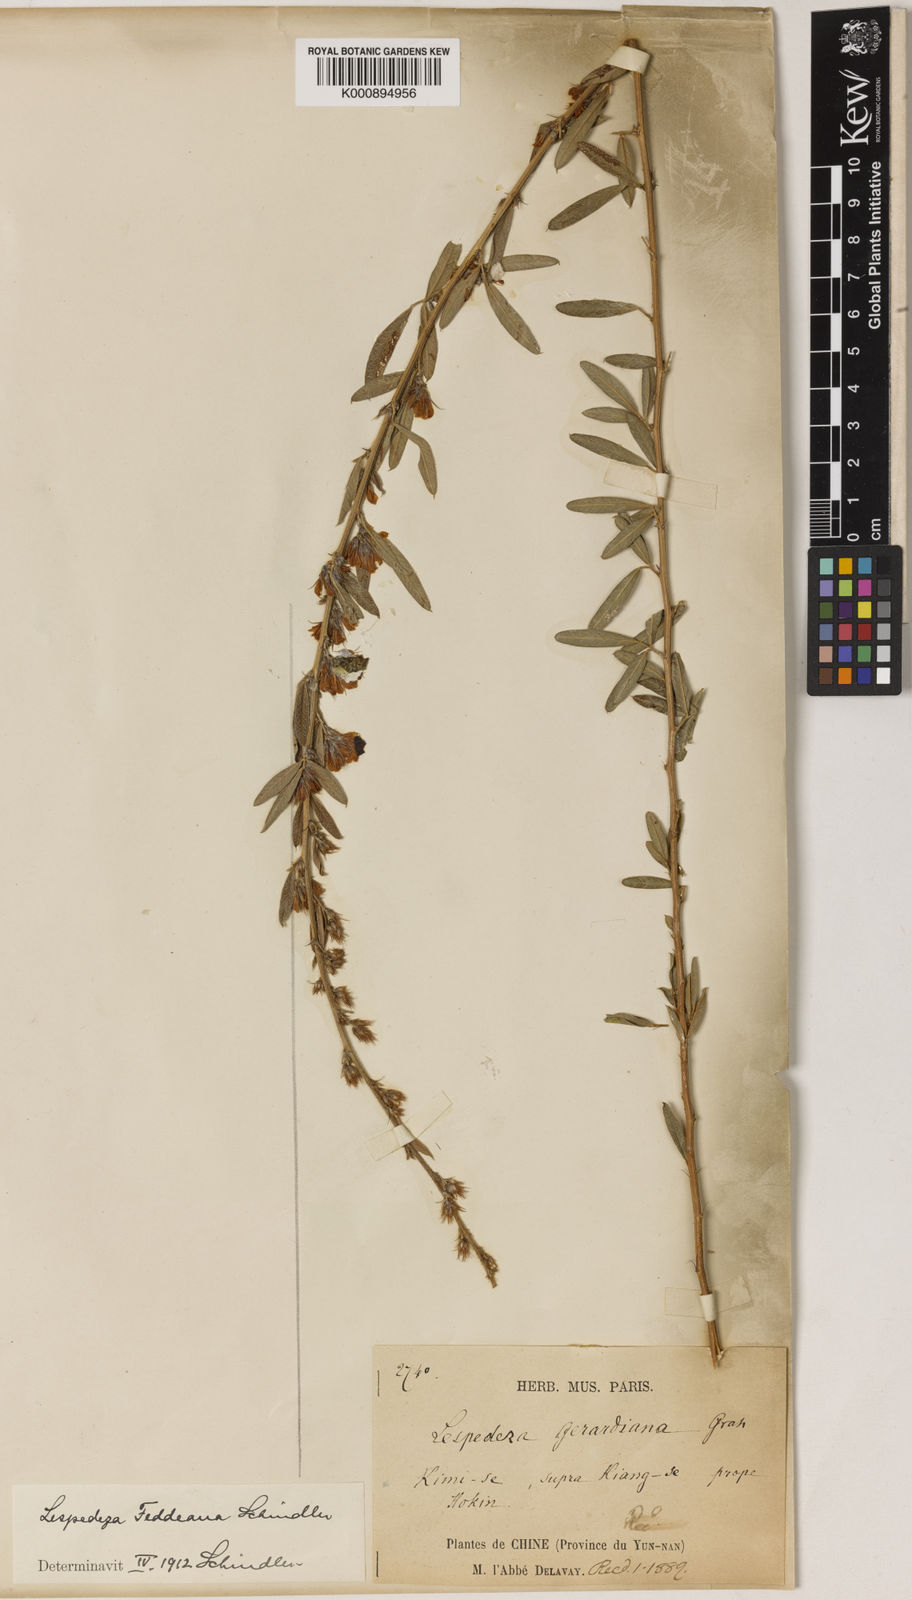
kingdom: Plantae
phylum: Tracheophyta
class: Magnoliopsida
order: Fabales
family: Fabaceae
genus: Lespedeza
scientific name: Lespedeza daurica
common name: Dahurian lespedeza
